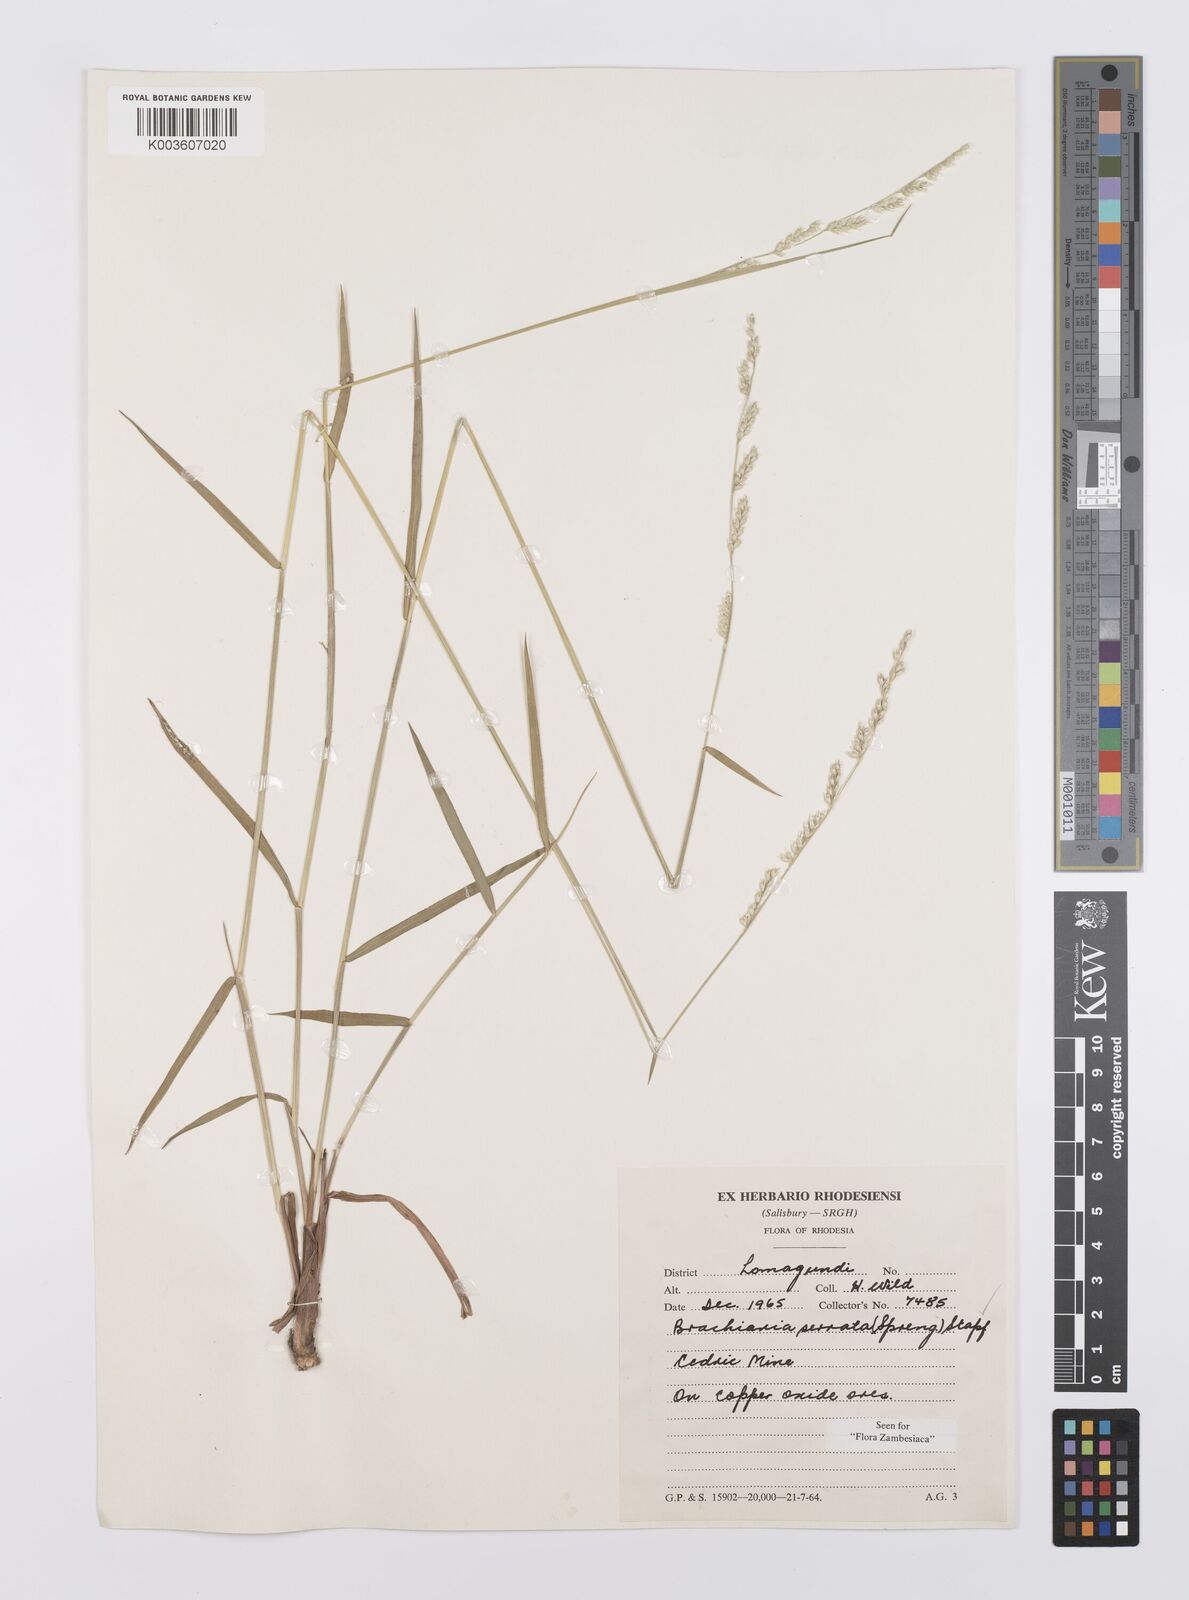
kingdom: Plantae
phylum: Tracheophyta
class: Liliopsida
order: Poales
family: Poaceae
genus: Urochloa
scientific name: Urochloa serrata
